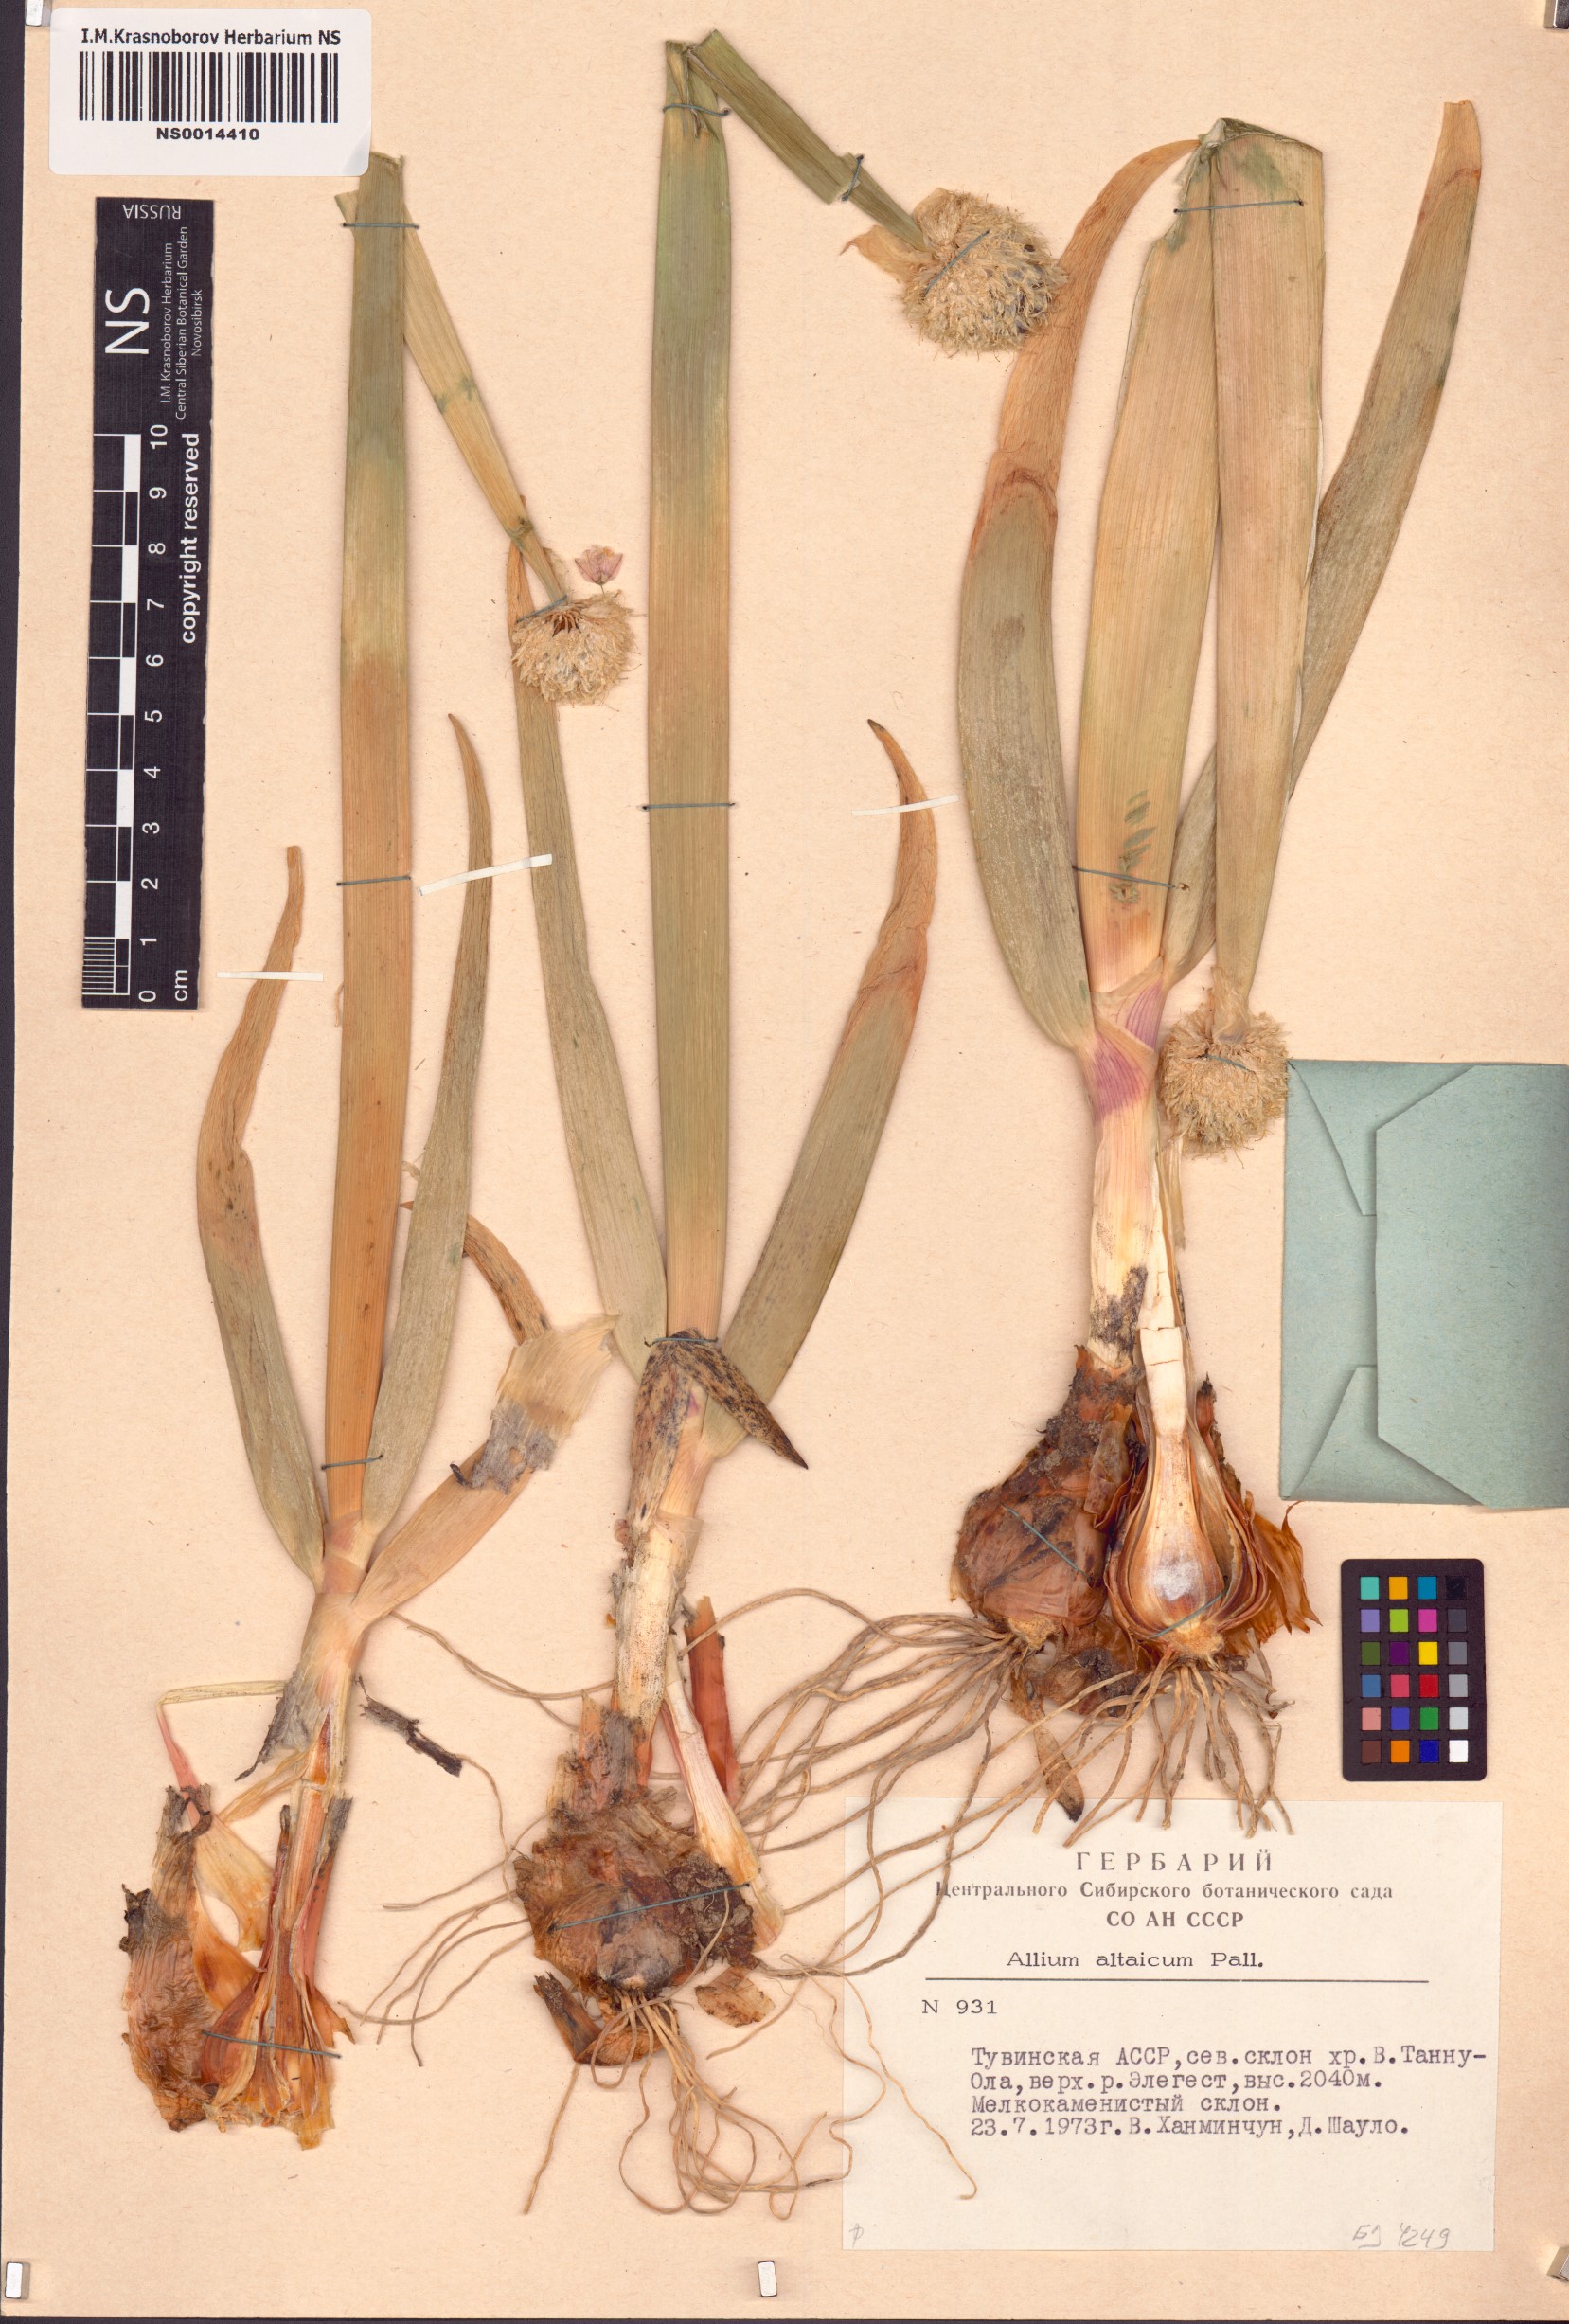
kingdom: Plantae
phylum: Tracheophyta
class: Liliopsida
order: Asparagales
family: Amaryllidaceae
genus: Allium
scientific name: Allium altaicum
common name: Altai onion
